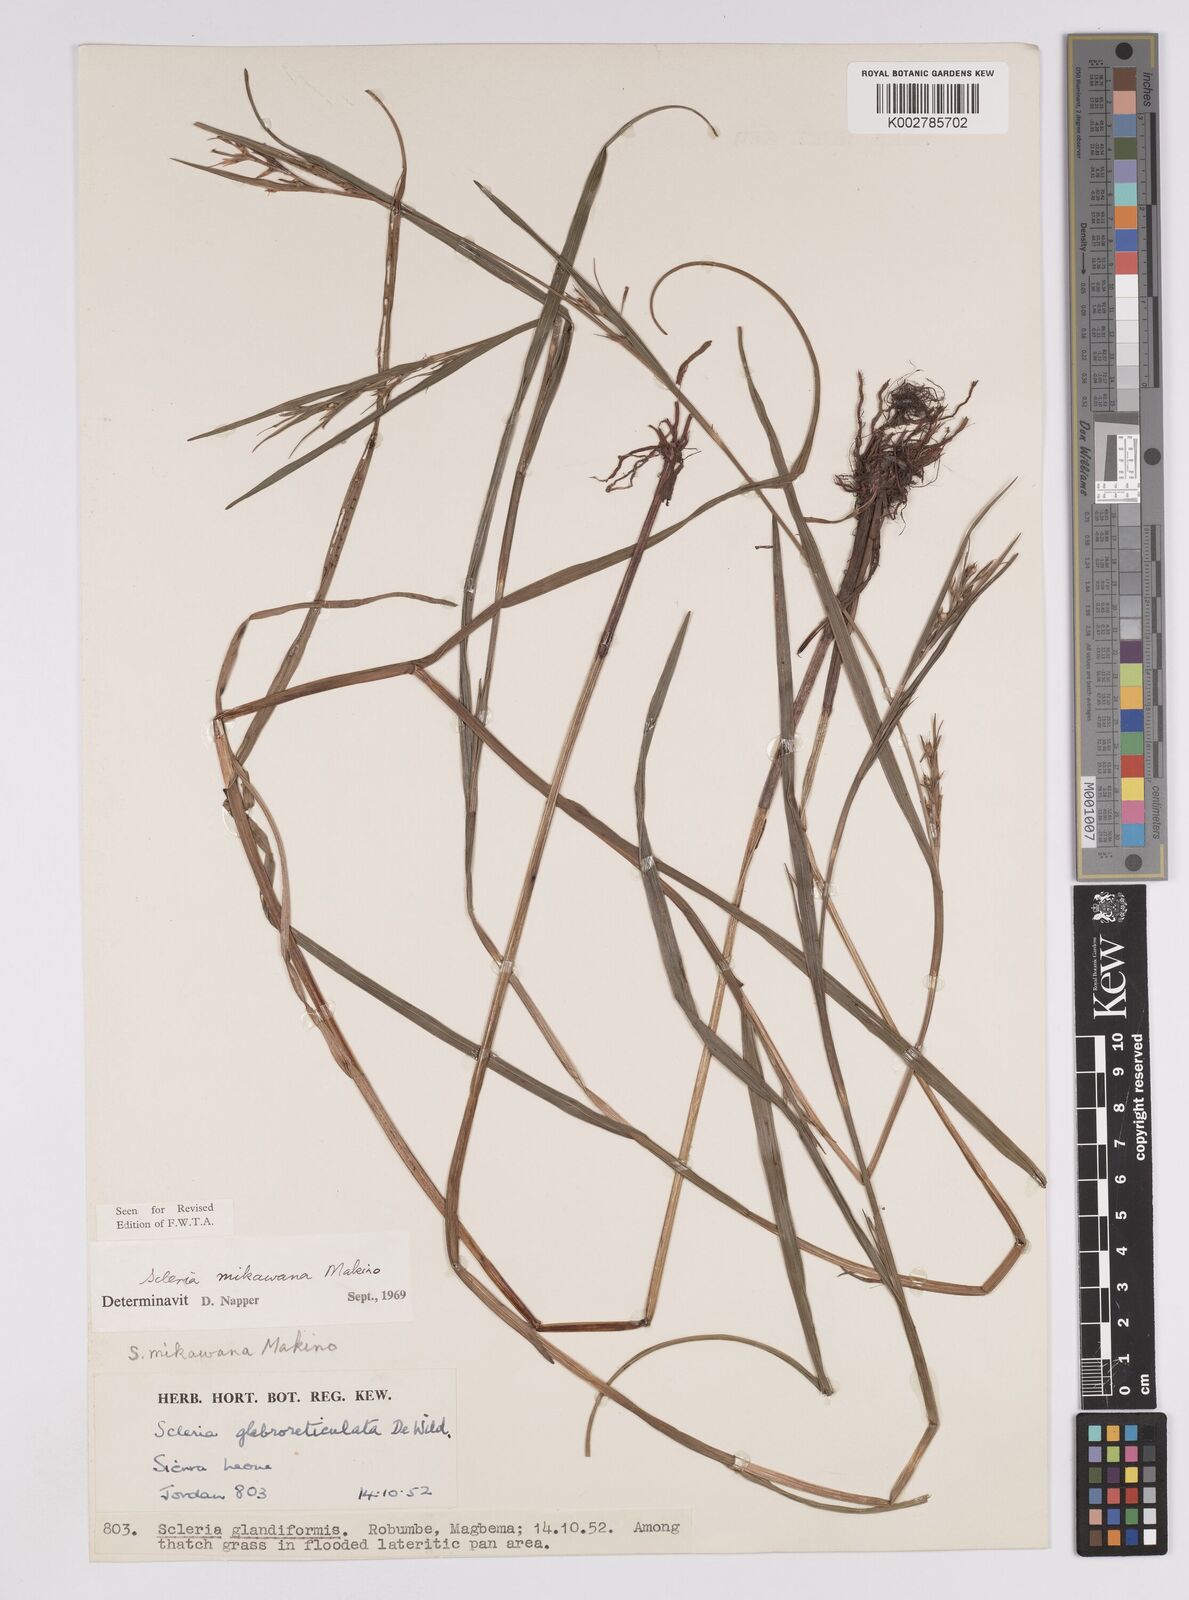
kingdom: Plantae
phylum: Tracheophyta
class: Liliopsida
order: Poales
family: Cyperaceae
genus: Scleria
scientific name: Scleria mikawana
